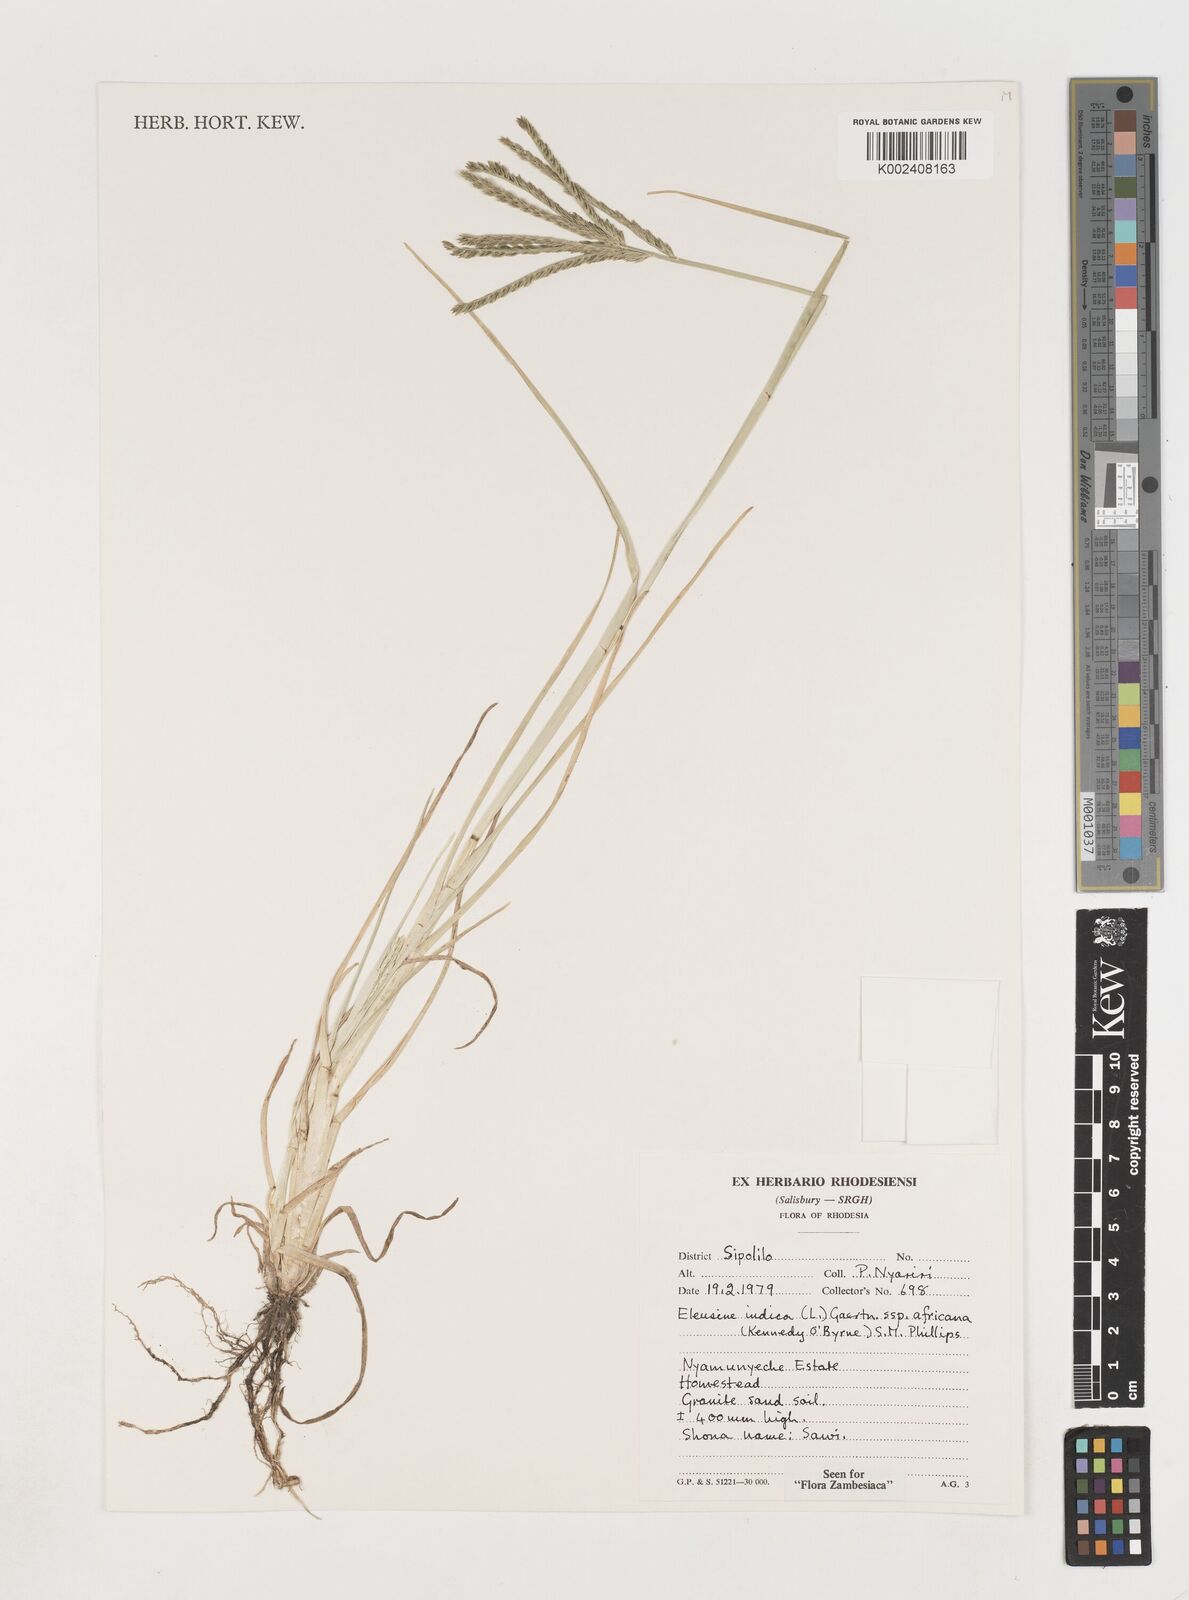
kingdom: Plantae
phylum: Tracheophyta
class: Liliopsida
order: Poales
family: Poaceae
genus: Eleusine
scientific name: Eleusine africana
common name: Wild african finger millet
